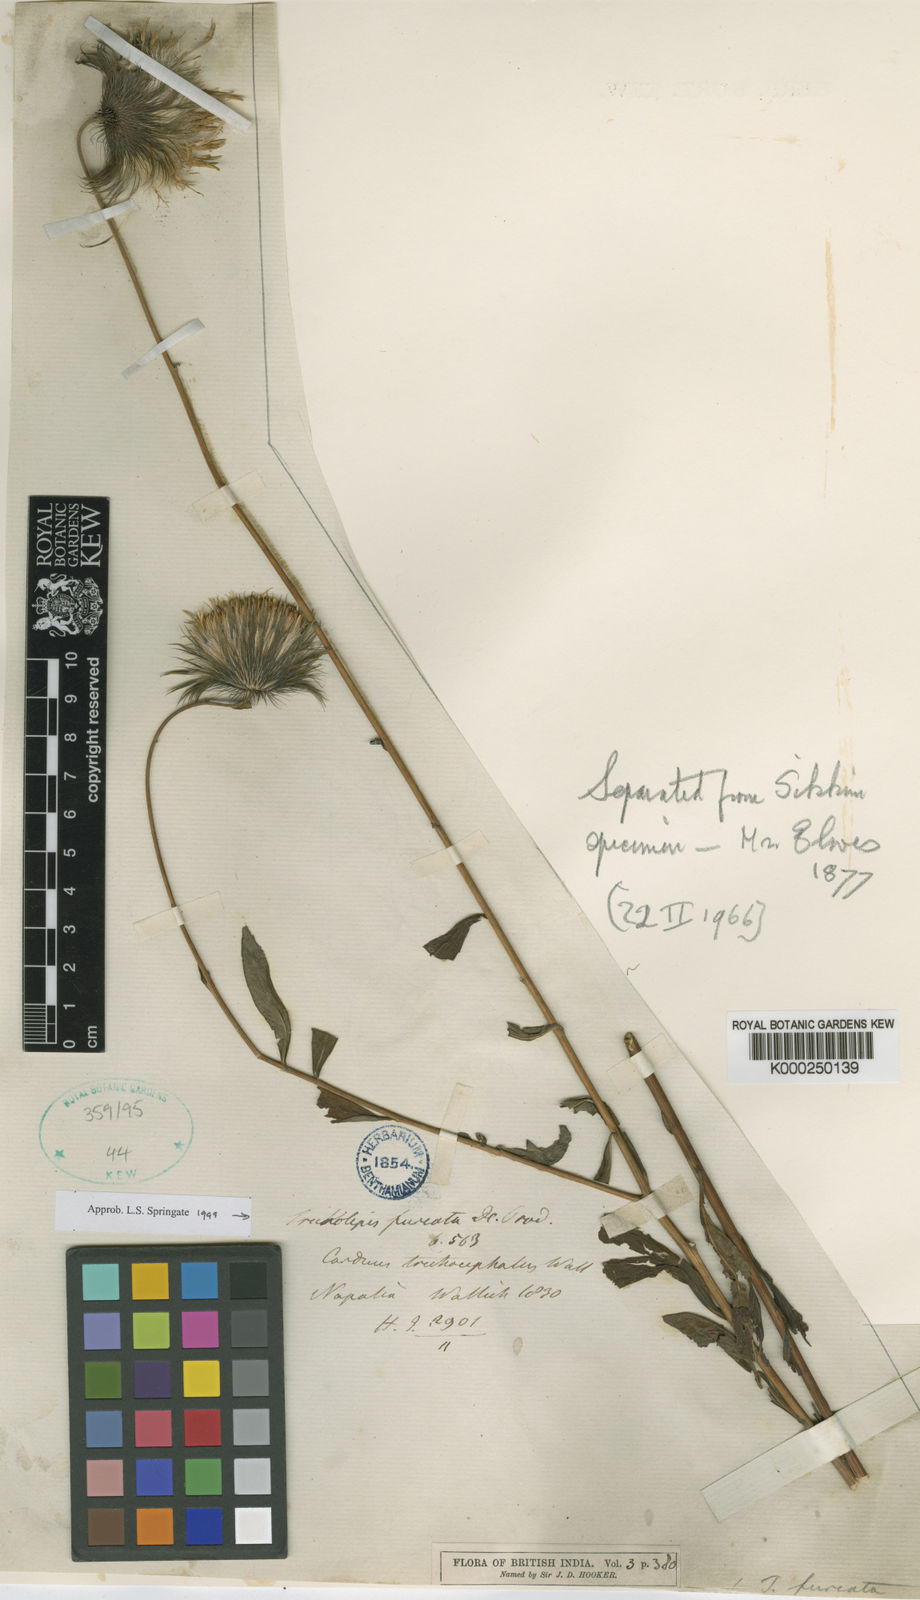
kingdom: Plantae
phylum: Tracheophyta
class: Magnoliopsida
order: Asterales
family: Asteraceae
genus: Tricholepis
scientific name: Tricholepis furcata
